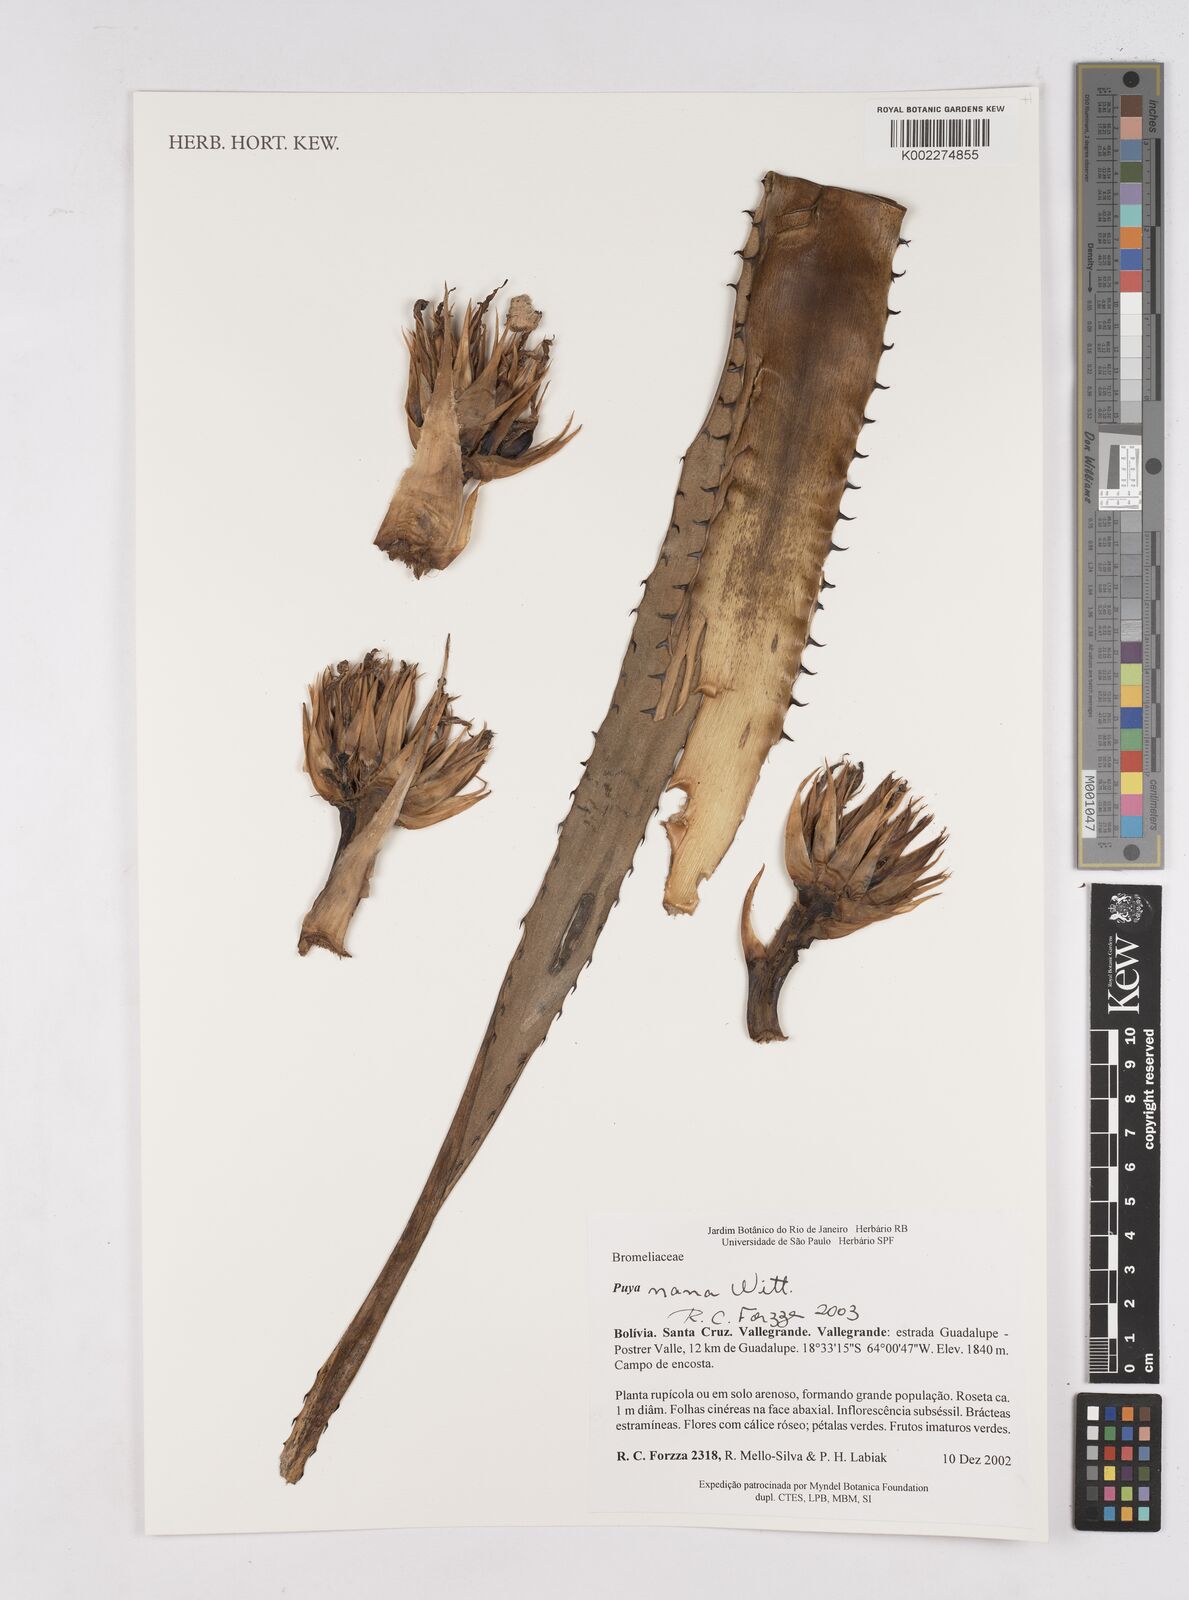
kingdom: Plantae
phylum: Tracheophyta
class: Liliopsida
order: Poales
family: Bromeliaceae
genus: Puya
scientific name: Puya nana
